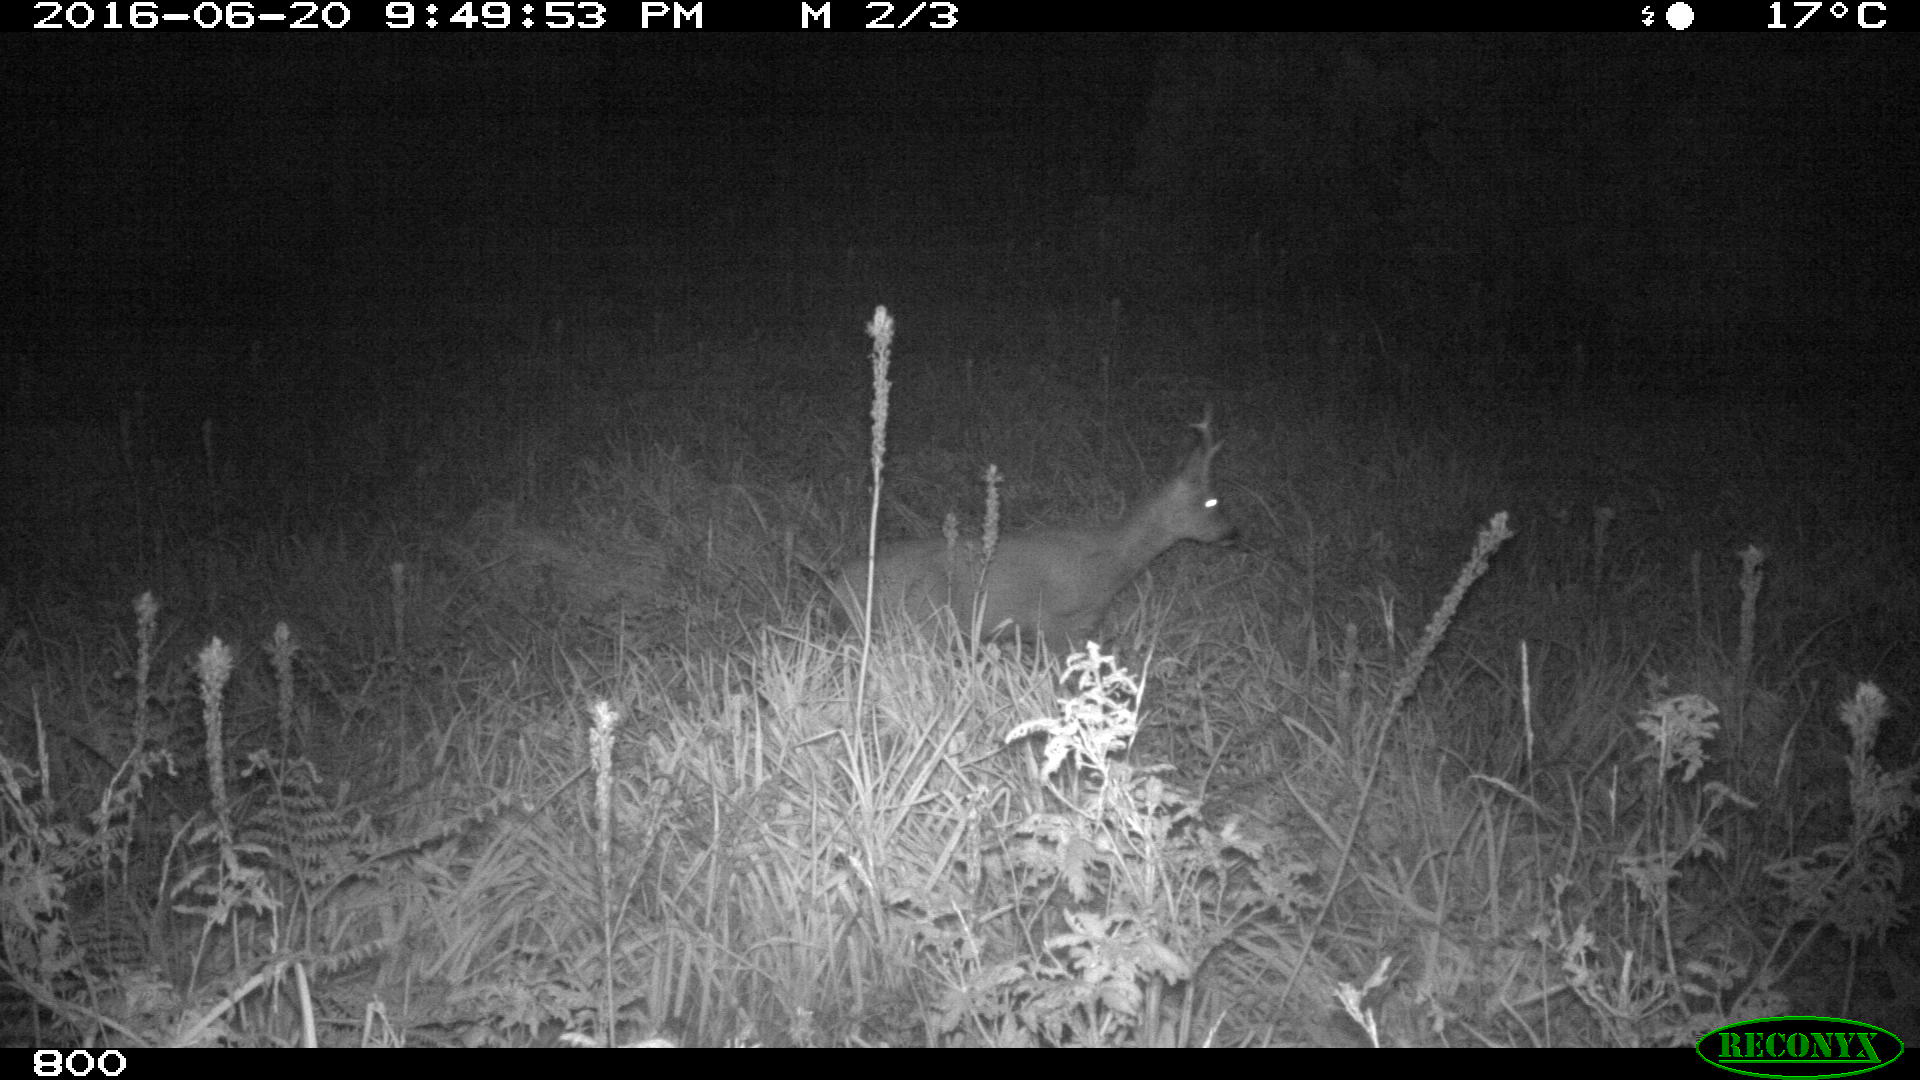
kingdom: Animalia
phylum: Chordata
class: Mammalia
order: Artiodactyla
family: Cervidae
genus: Capreolus
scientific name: Capreolus capreolus
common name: Western roe deer
